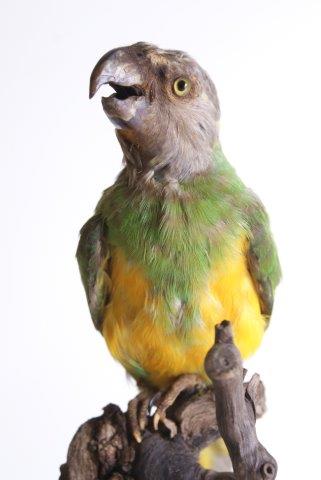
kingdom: Animalia
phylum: Chordata
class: Aves
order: Psittaciformes
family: Psittacidae
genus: Poicephalus
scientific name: Poicephalus senegalus
